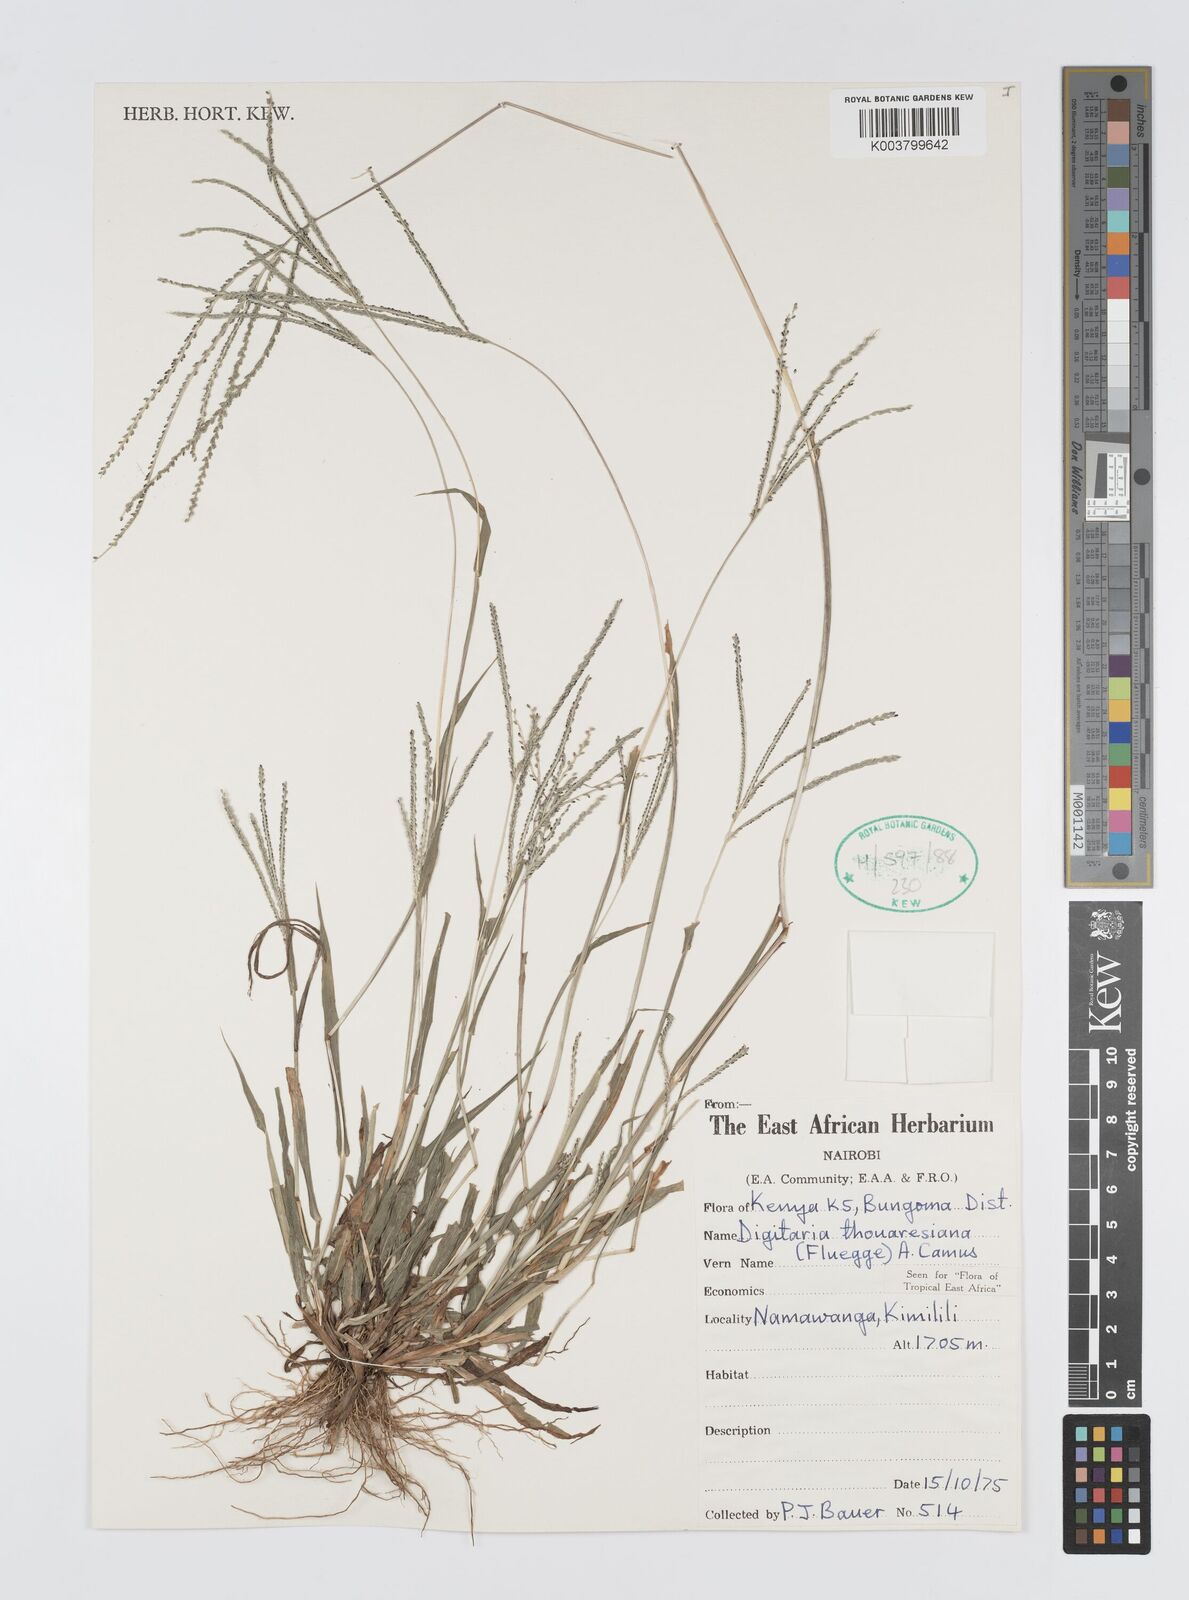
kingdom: Plantae
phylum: Tracheophyta
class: Liliopsida
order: Poales
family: Poaceae
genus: Digitaria
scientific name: Digitaria thouarsiana
